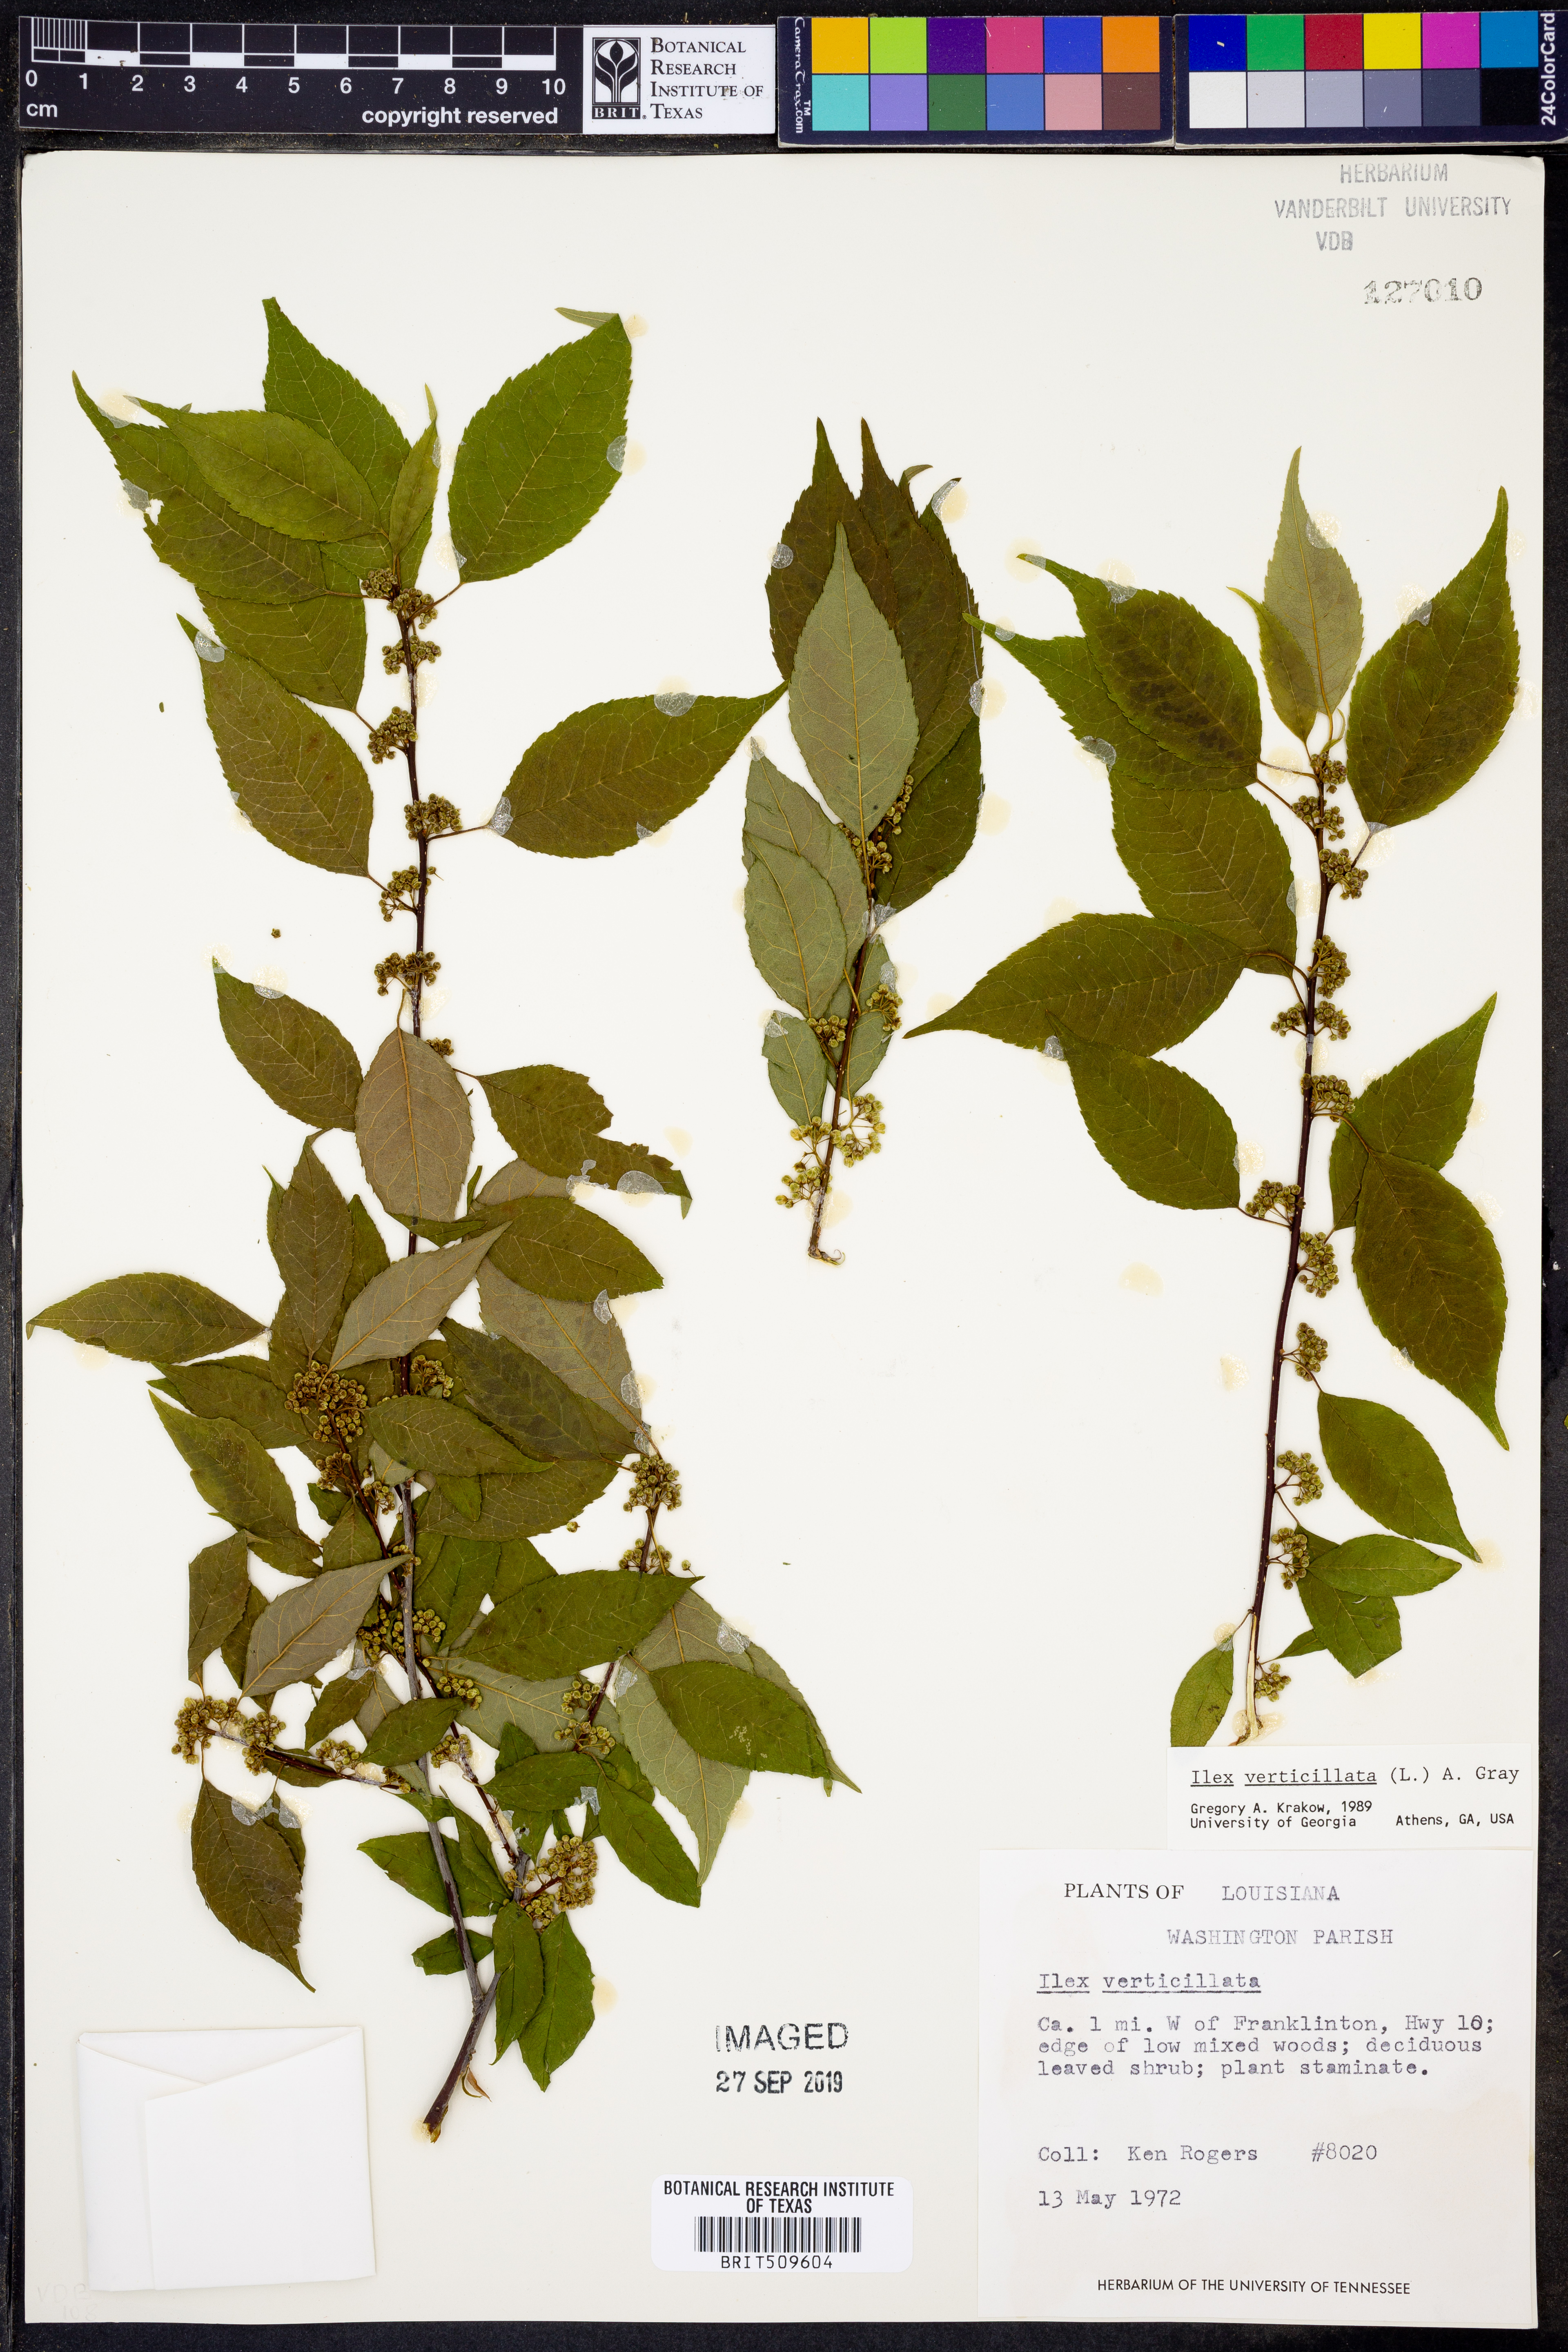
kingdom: Plantae
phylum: Tracheophyta
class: Magnoliopsida
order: Aquifoliales
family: Aquifoliaceae
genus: Ilex
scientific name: Ilex verticillata
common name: Virginia winterberry
